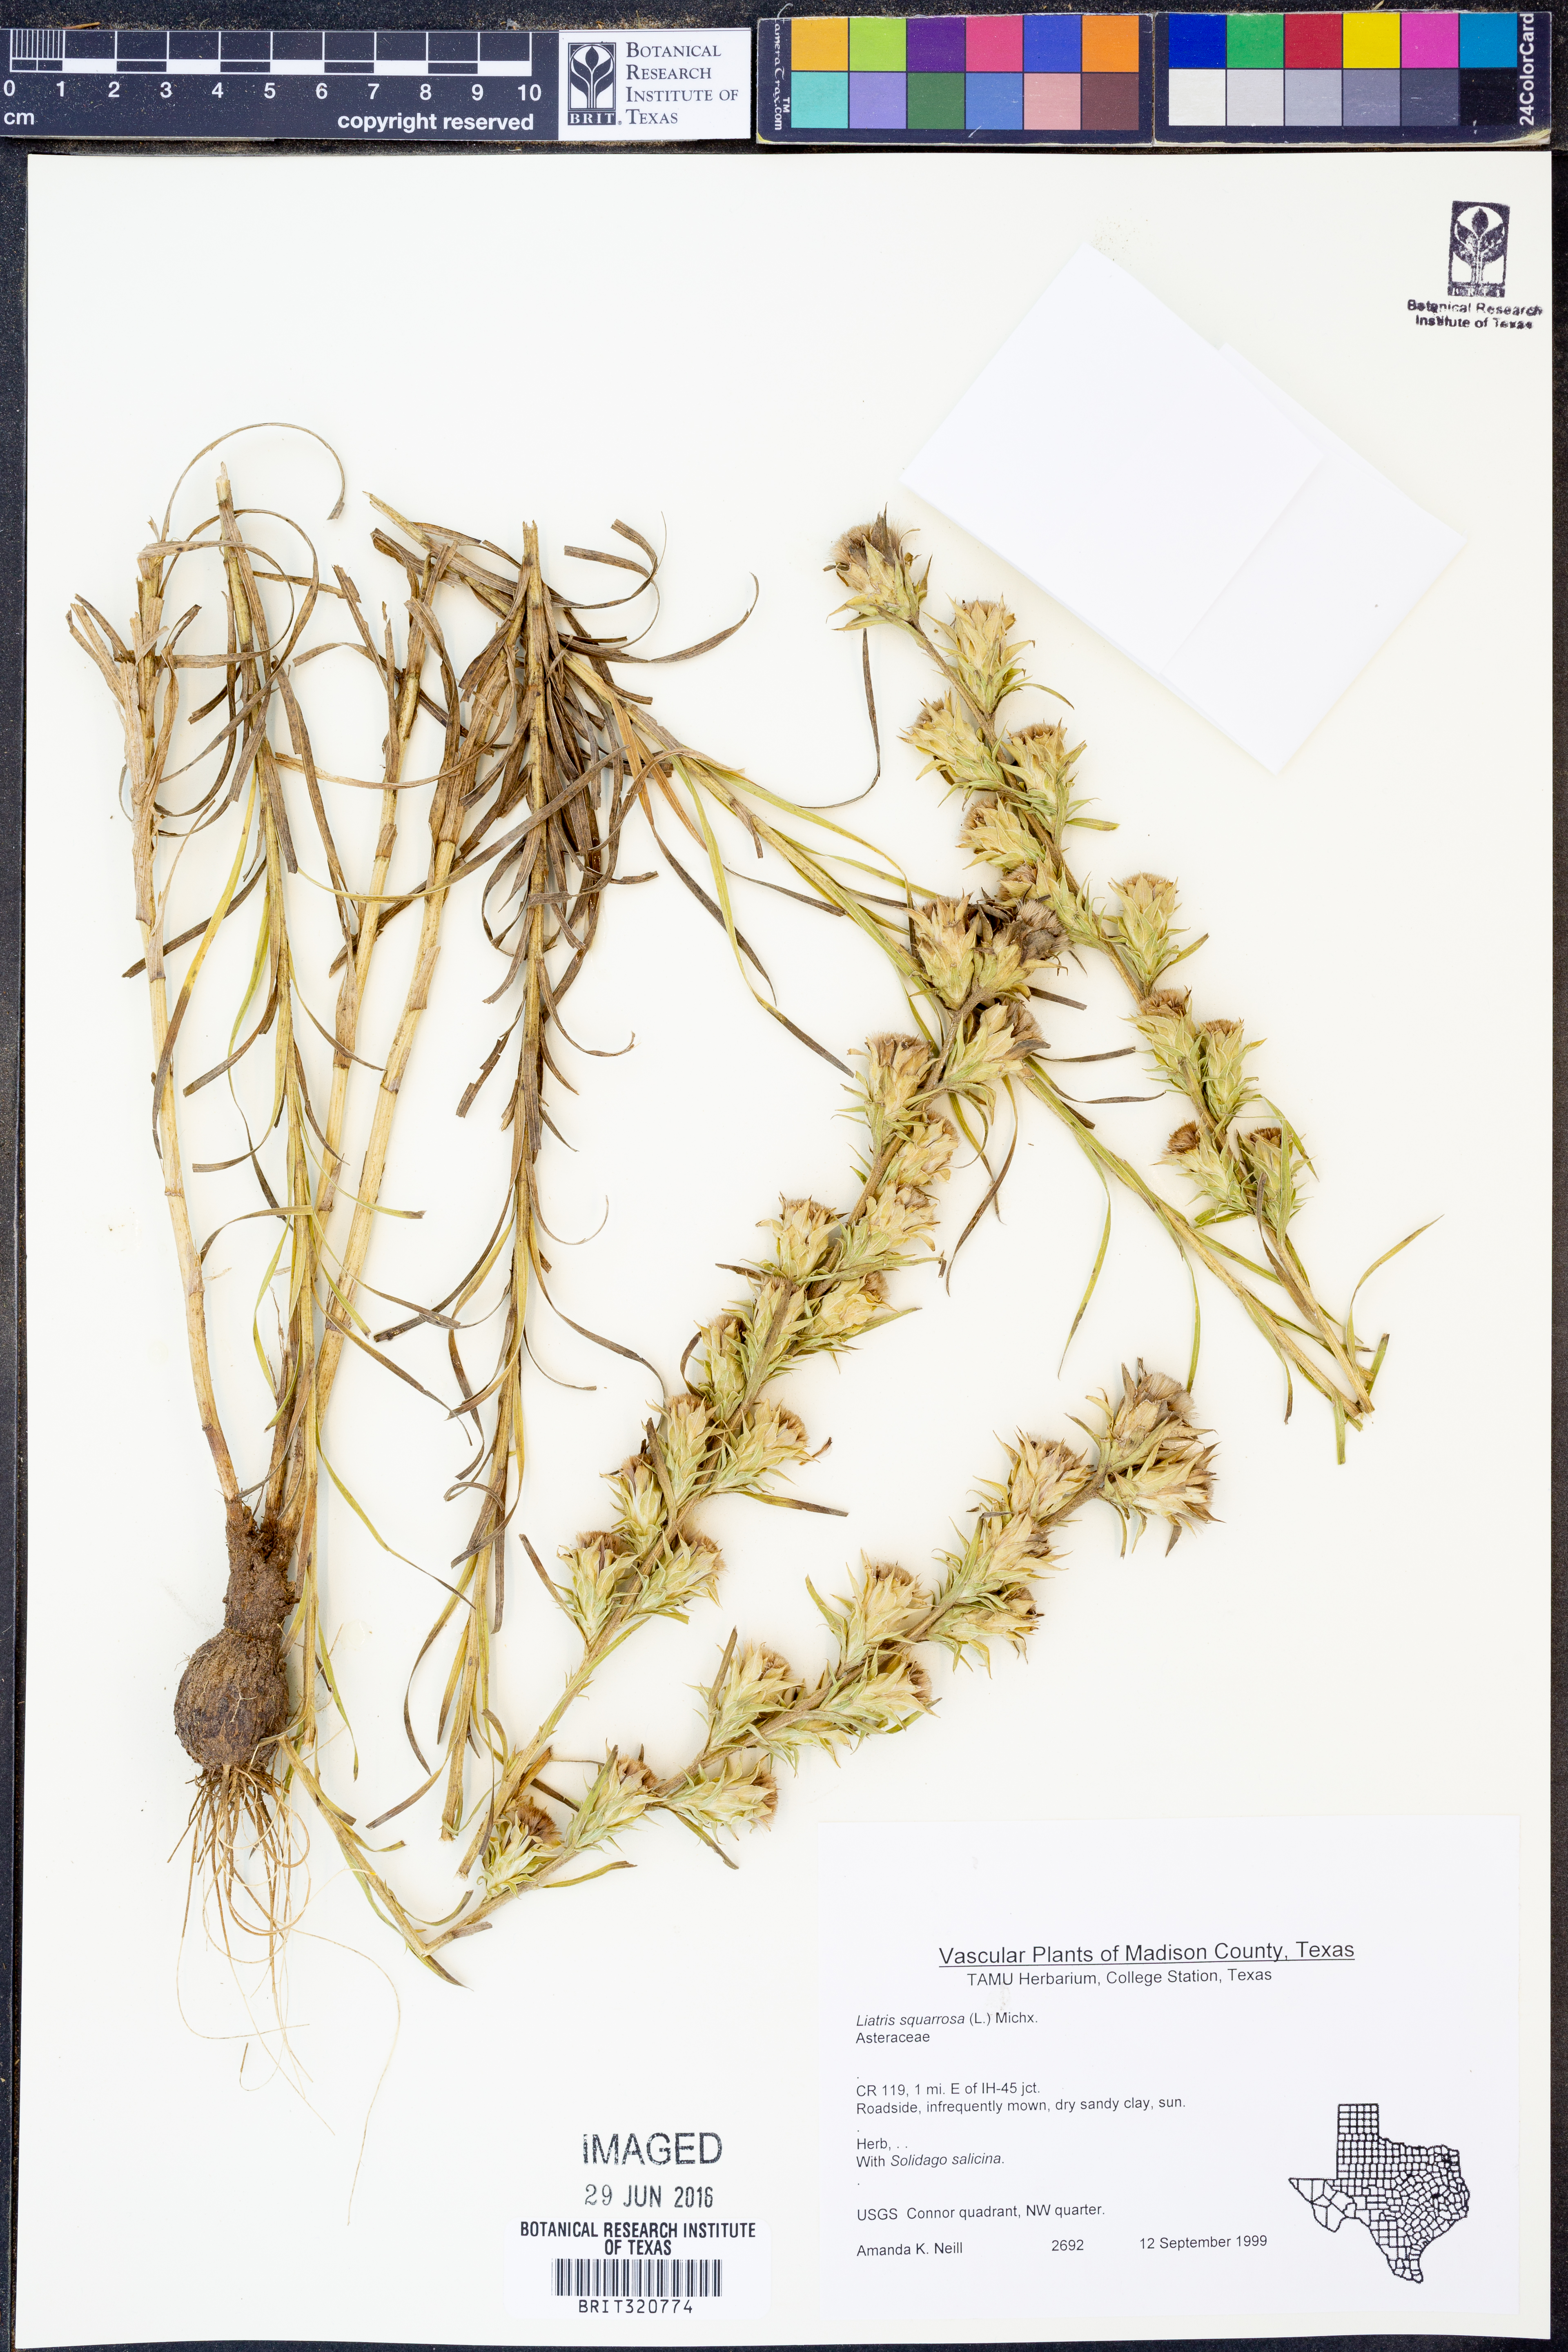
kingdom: Plantae
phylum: Tracheophyta
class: Magnoliopsida
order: Asterales
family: Asteraceae
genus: Liatris
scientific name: Liatris squarrosa
